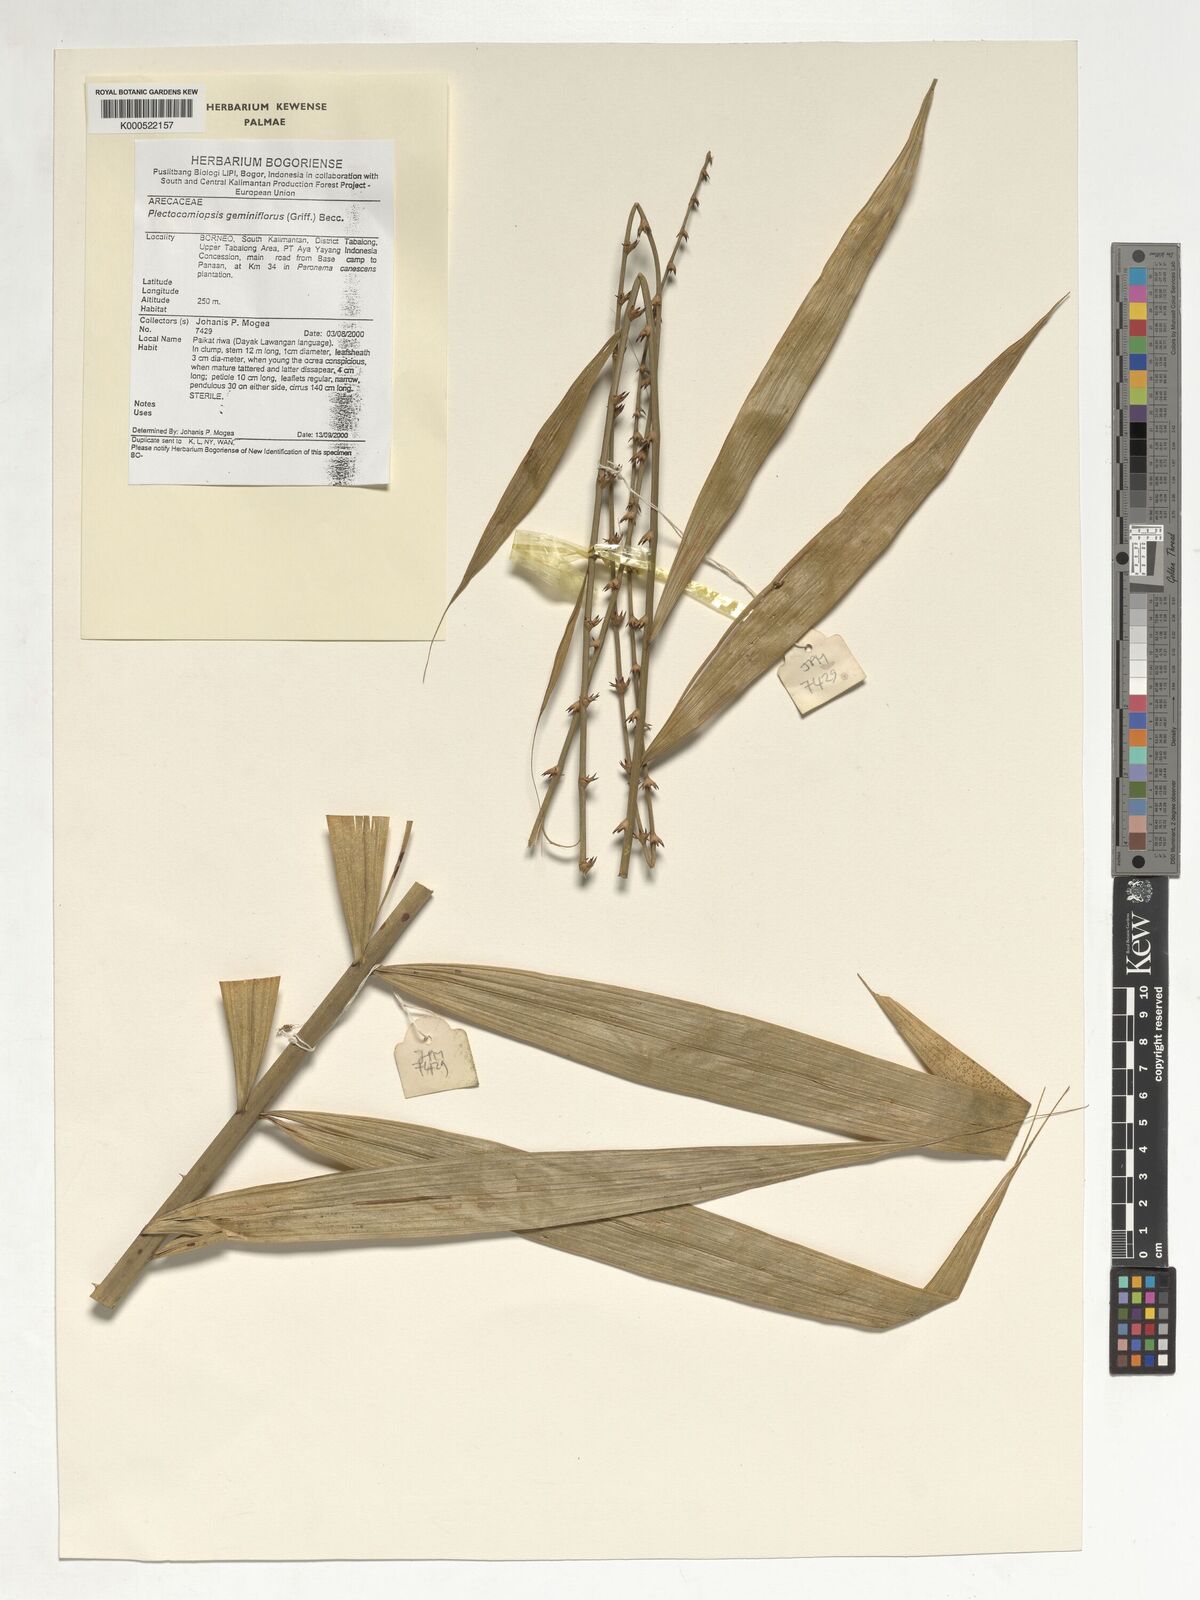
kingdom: Plantae
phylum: Tracheophyta
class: Liliopsida
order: Arecales
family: Arecaceae
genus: Plectocomiopsis
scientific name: Plectocomiopsis geminiflora
